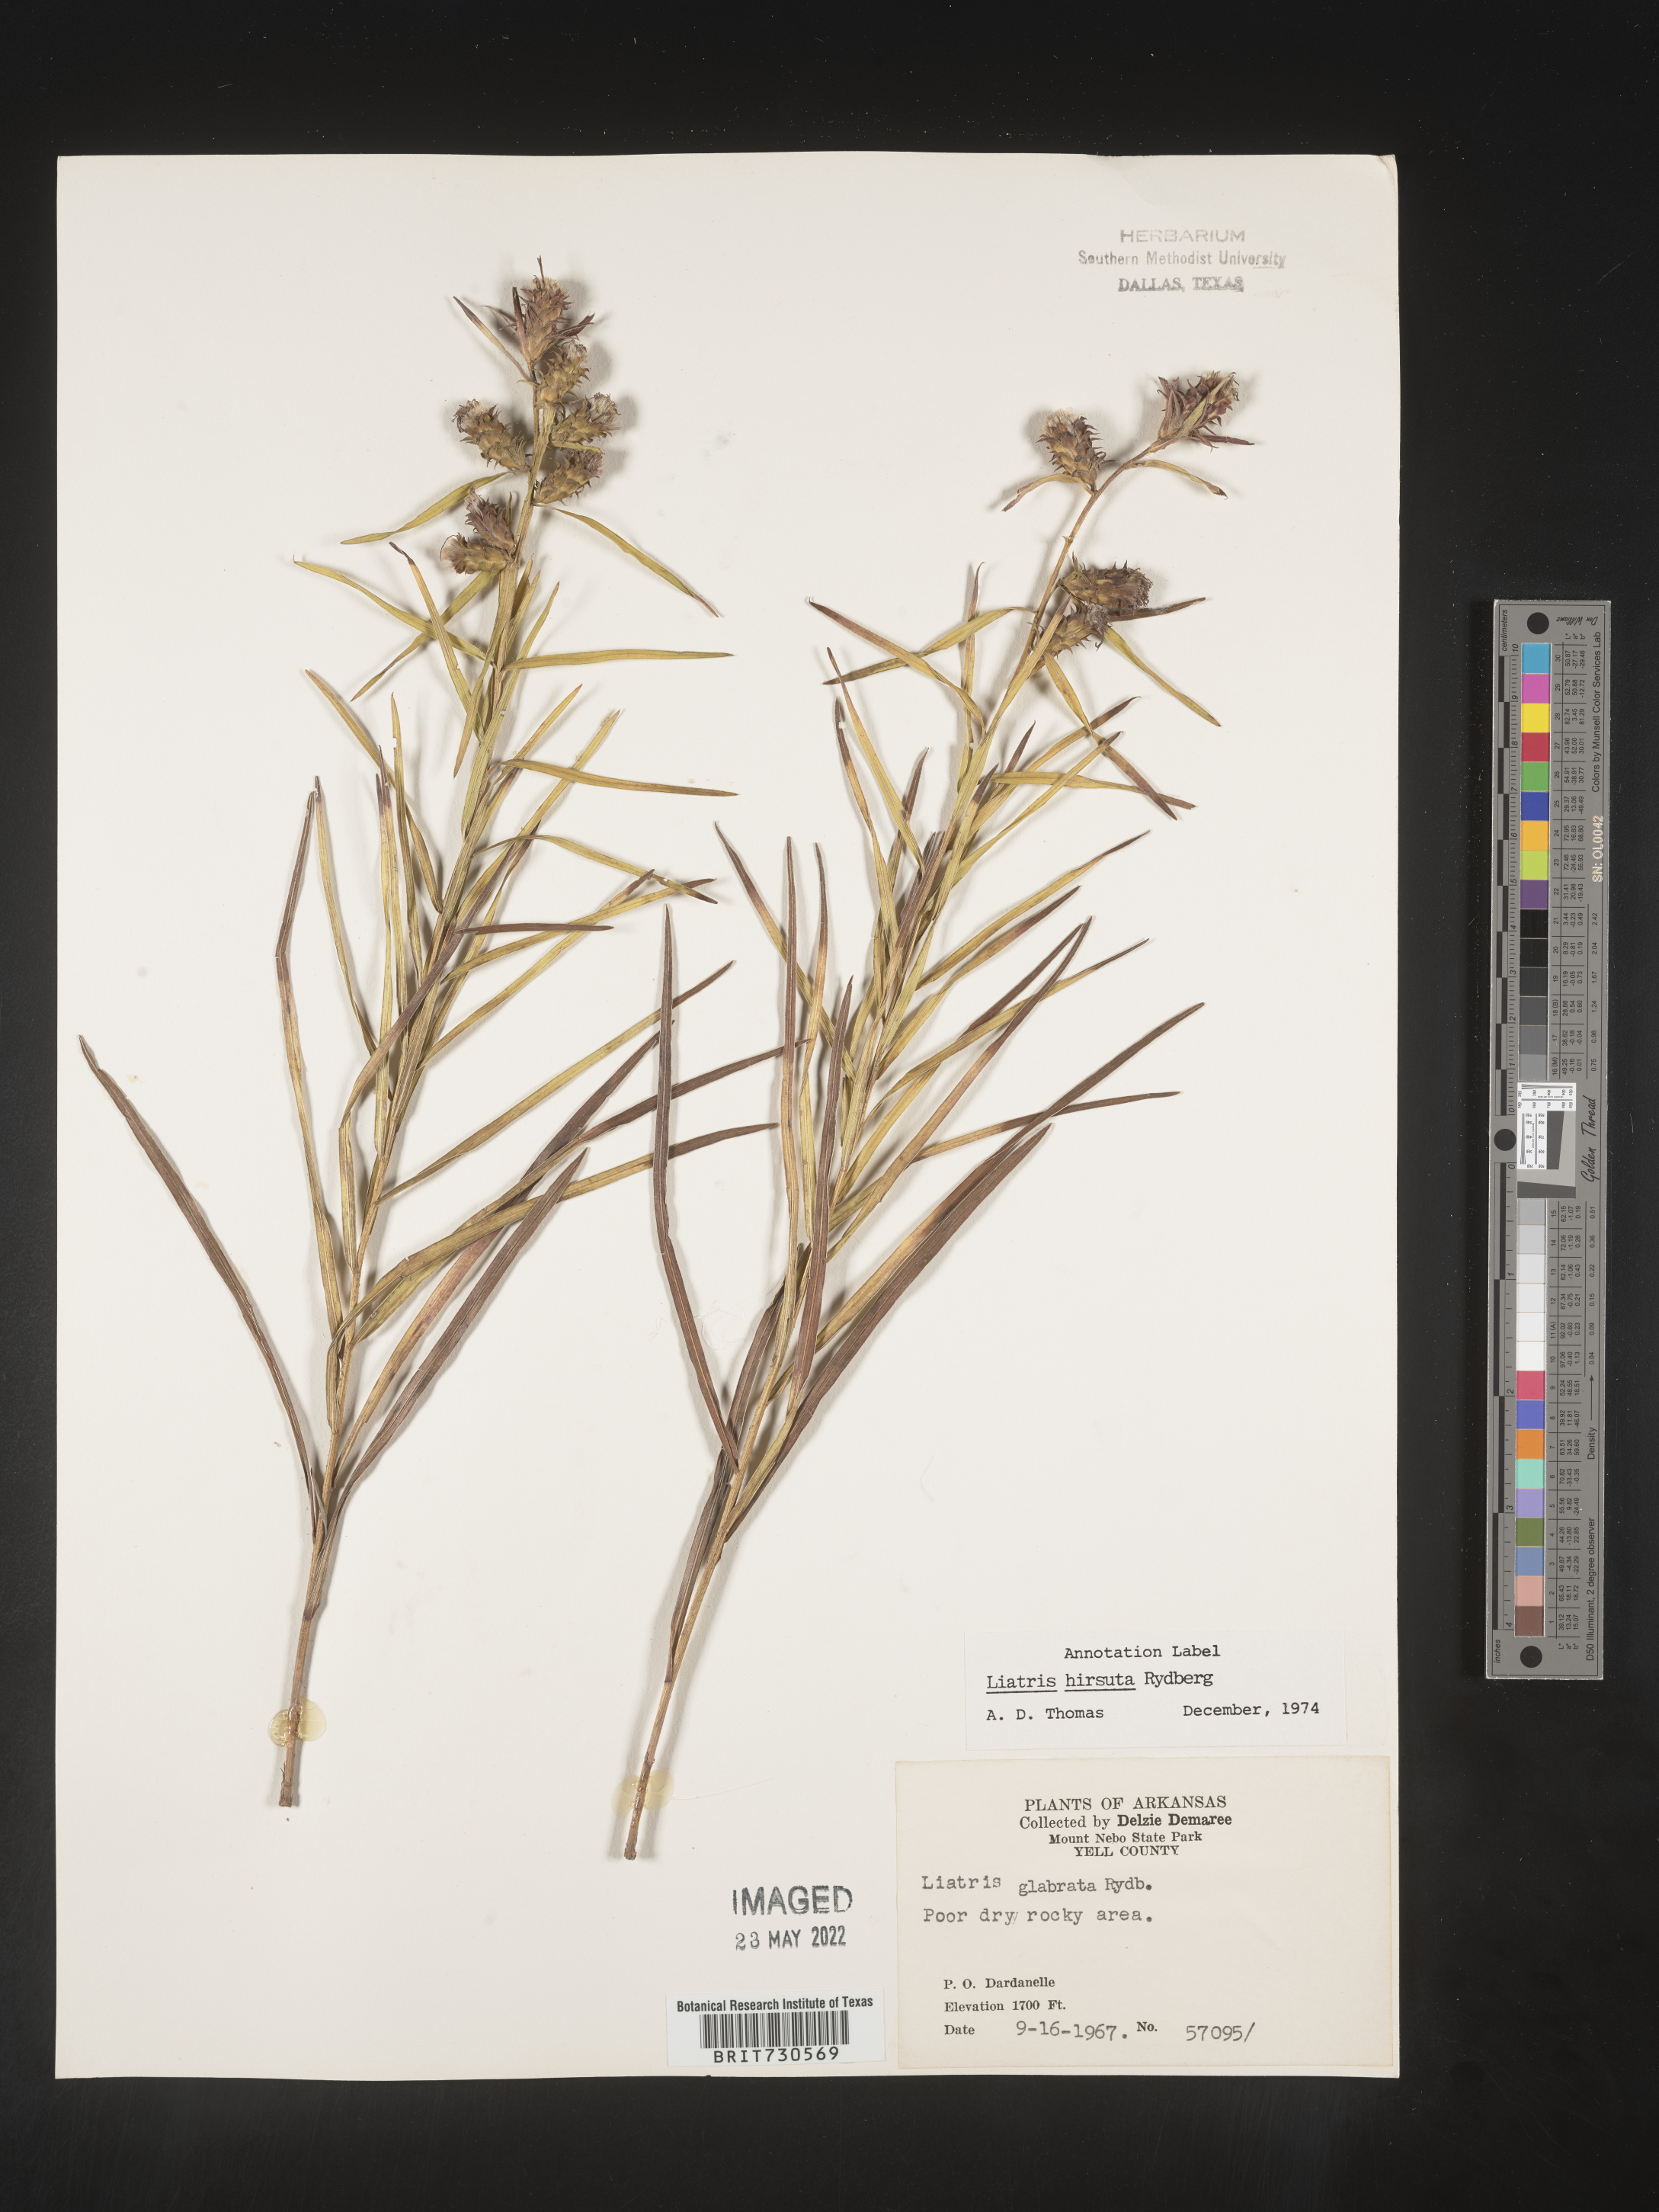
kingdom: Plantae
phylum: Tracheophyta
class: Magnoliopsida
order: Asterales
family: Asteraceae
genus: Liatris
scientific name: Liatris hirsuta
